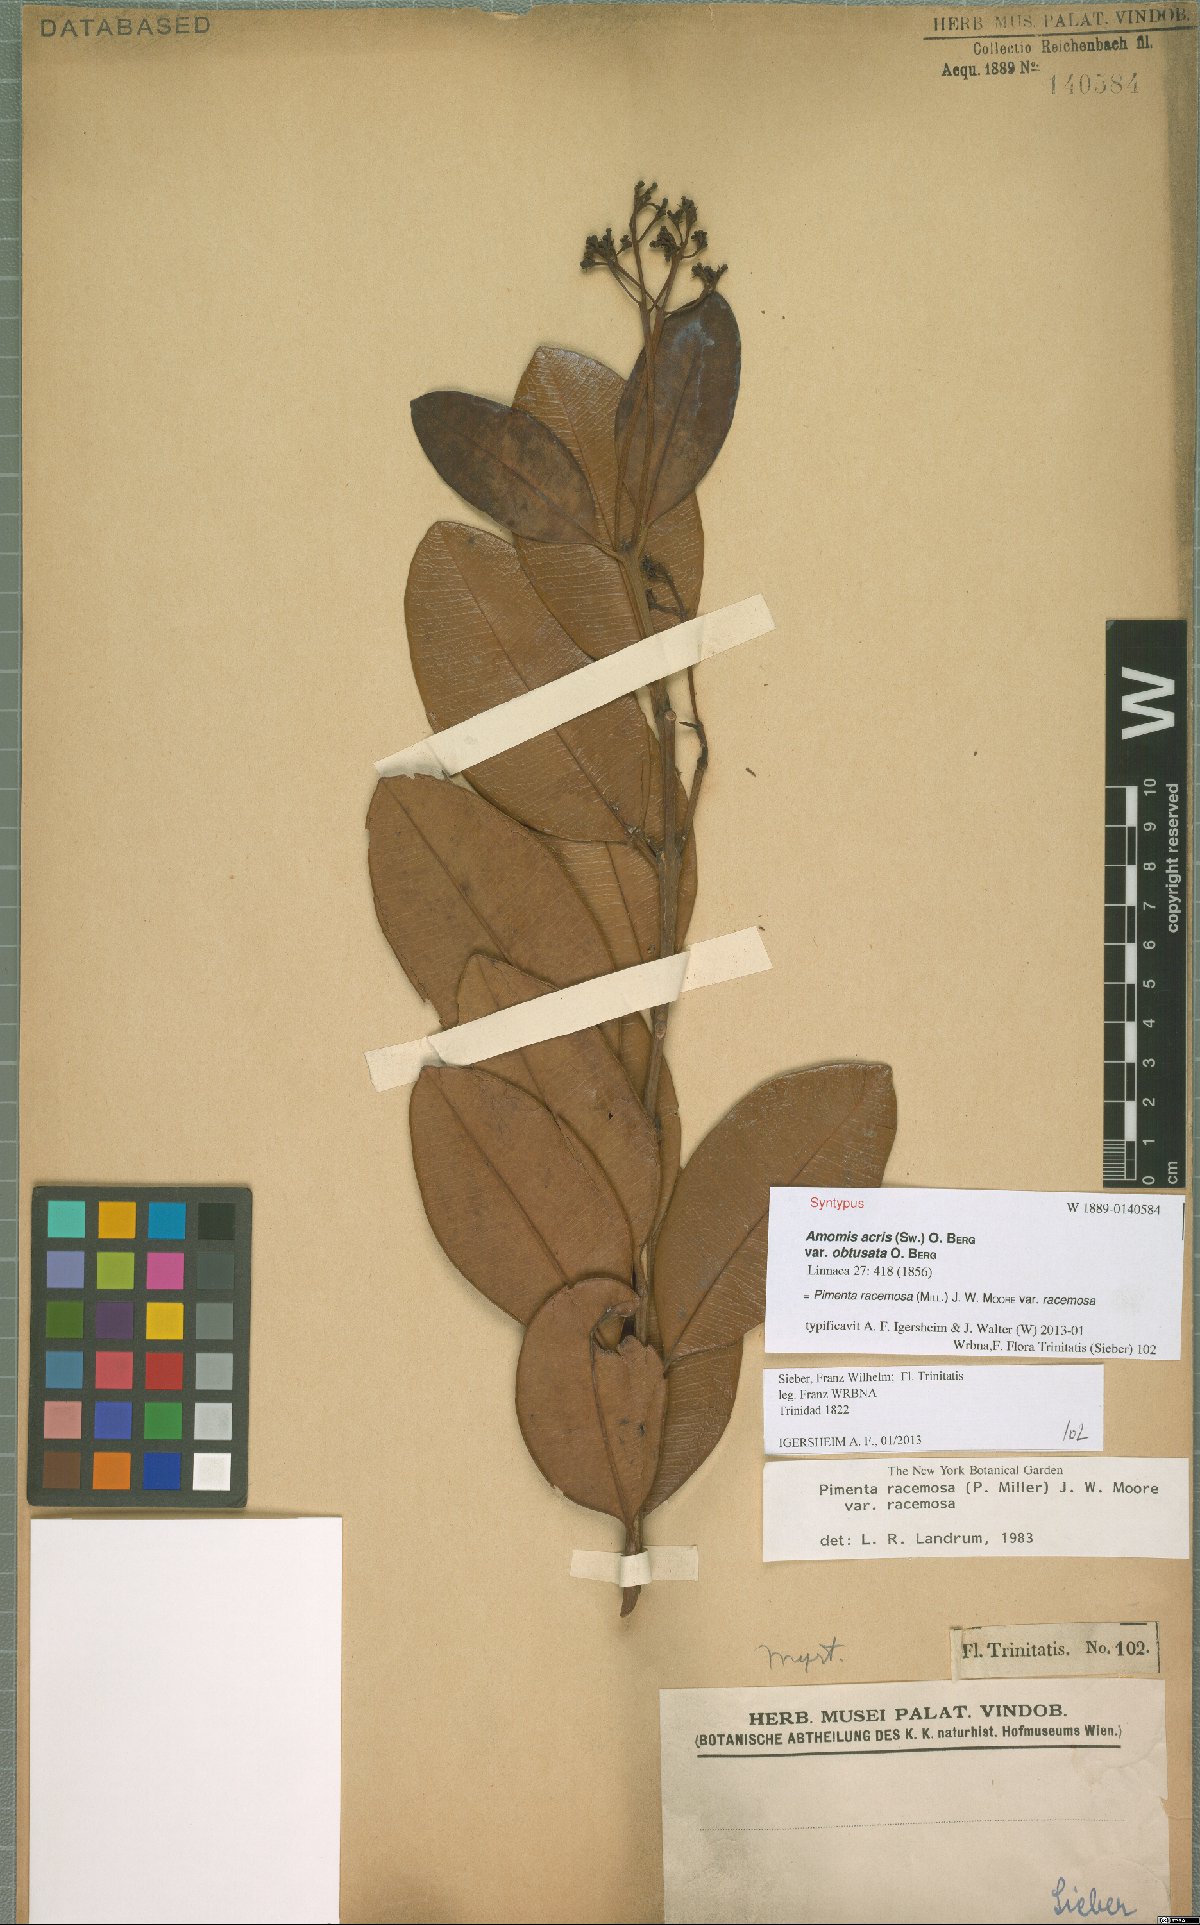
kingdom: Plantae
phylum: Tracheophyta
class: Magnoliopsida
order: Myrtales
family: Myrtaceae
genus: Pimenta
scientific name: Pimenta racemosa
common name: Bay rum tree
